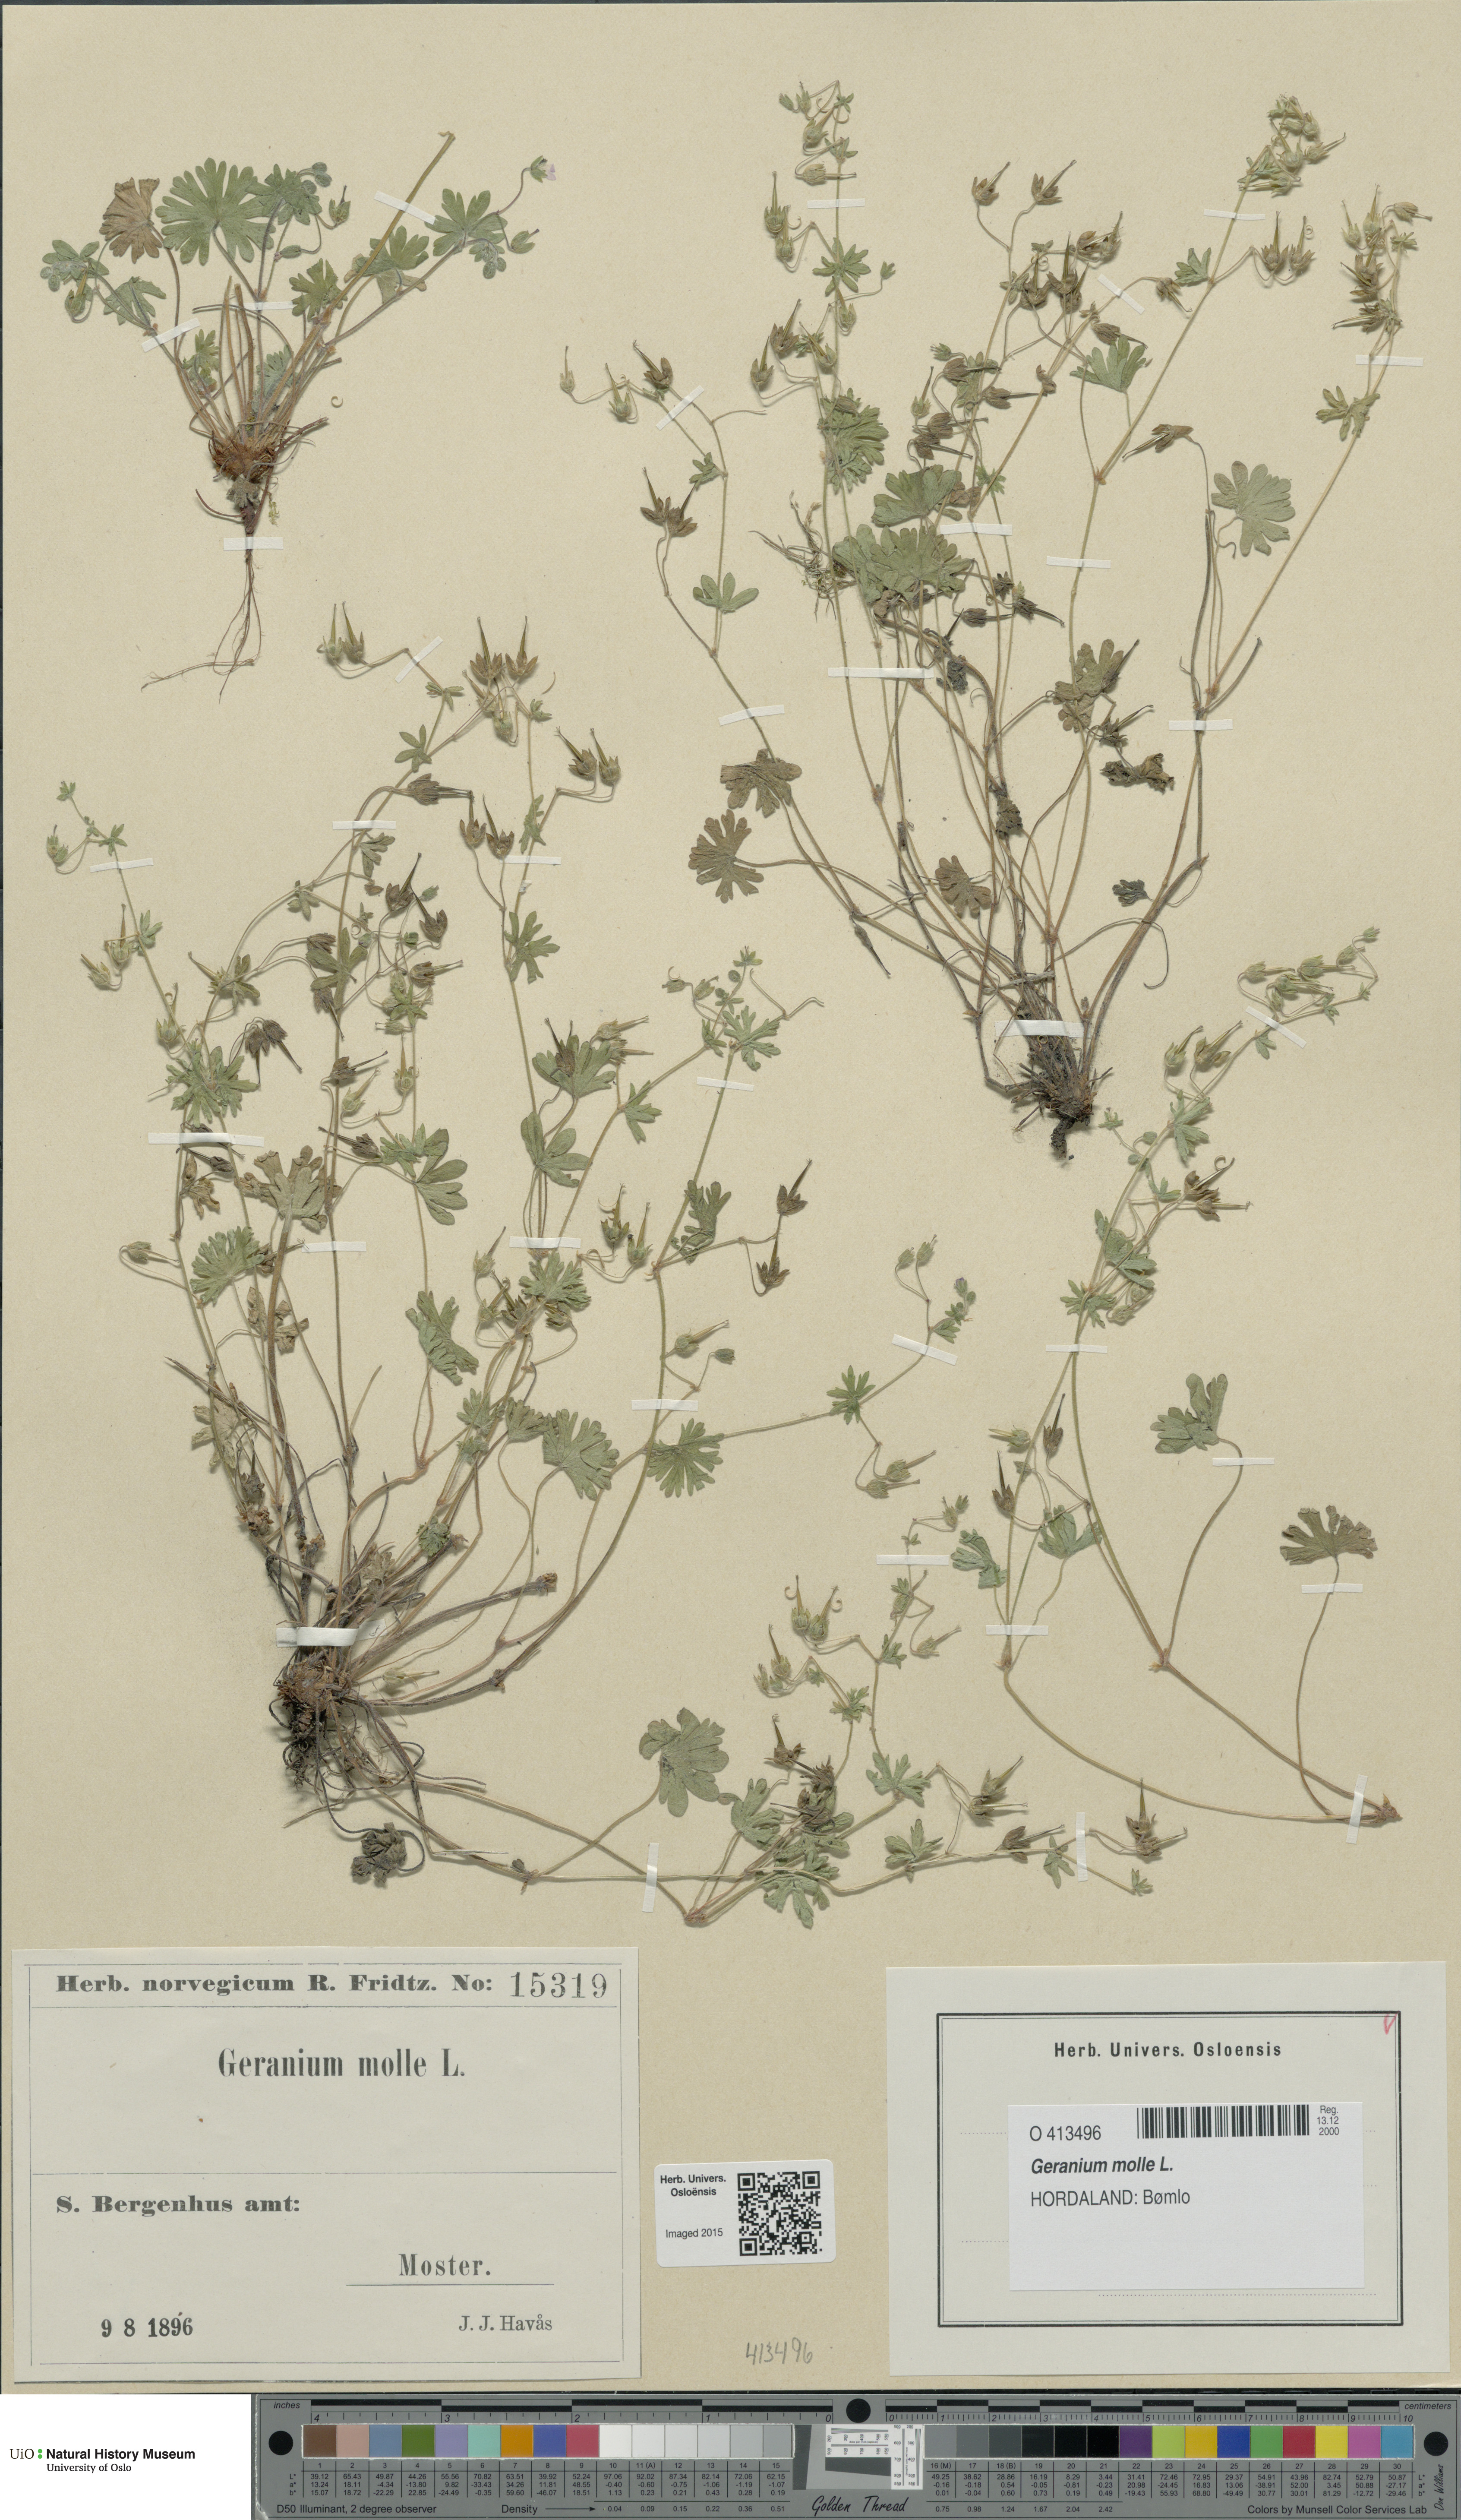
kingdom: Plantae
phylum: Tracheophyta
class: Magnoliopsida
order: Geraniales
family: Geraniaceae
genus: Geranium
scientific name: Geranium molle
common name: Dove's-foot crane's-bill
